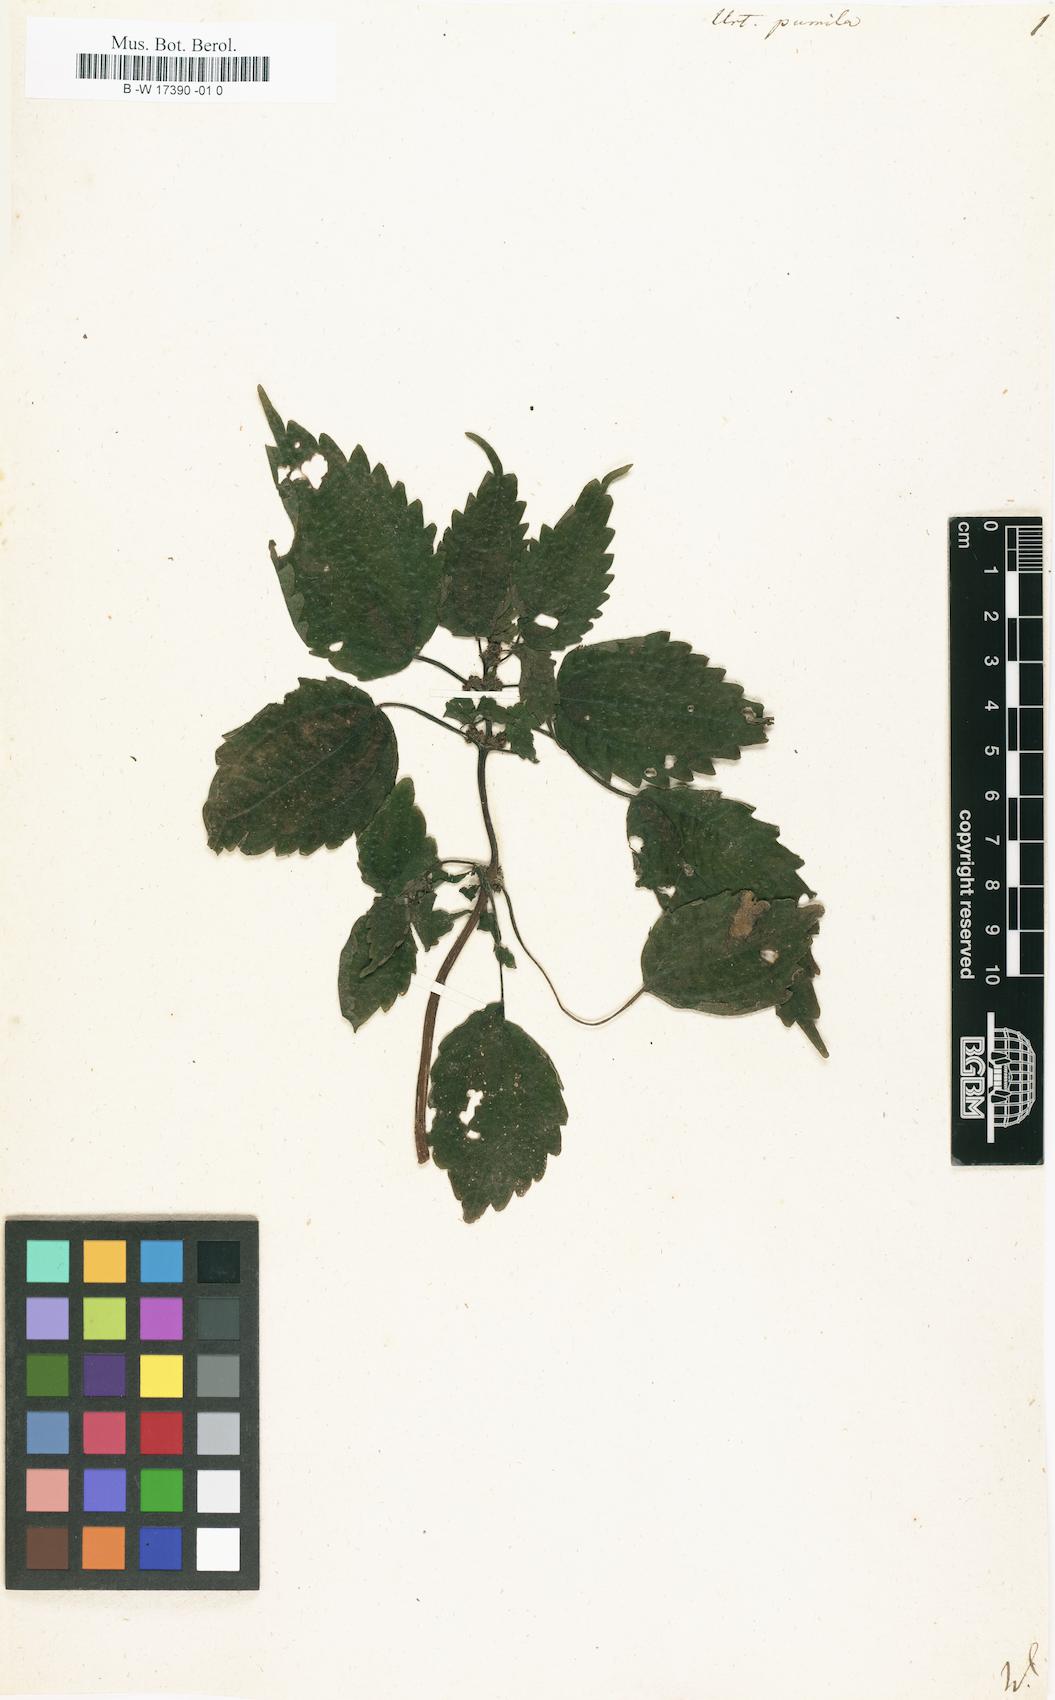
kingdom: Plantae
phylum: Tracheophyta
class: Magnoliopsida
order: Rosales
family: Urticaceae
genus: Urtica
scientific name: Urtica pumila
